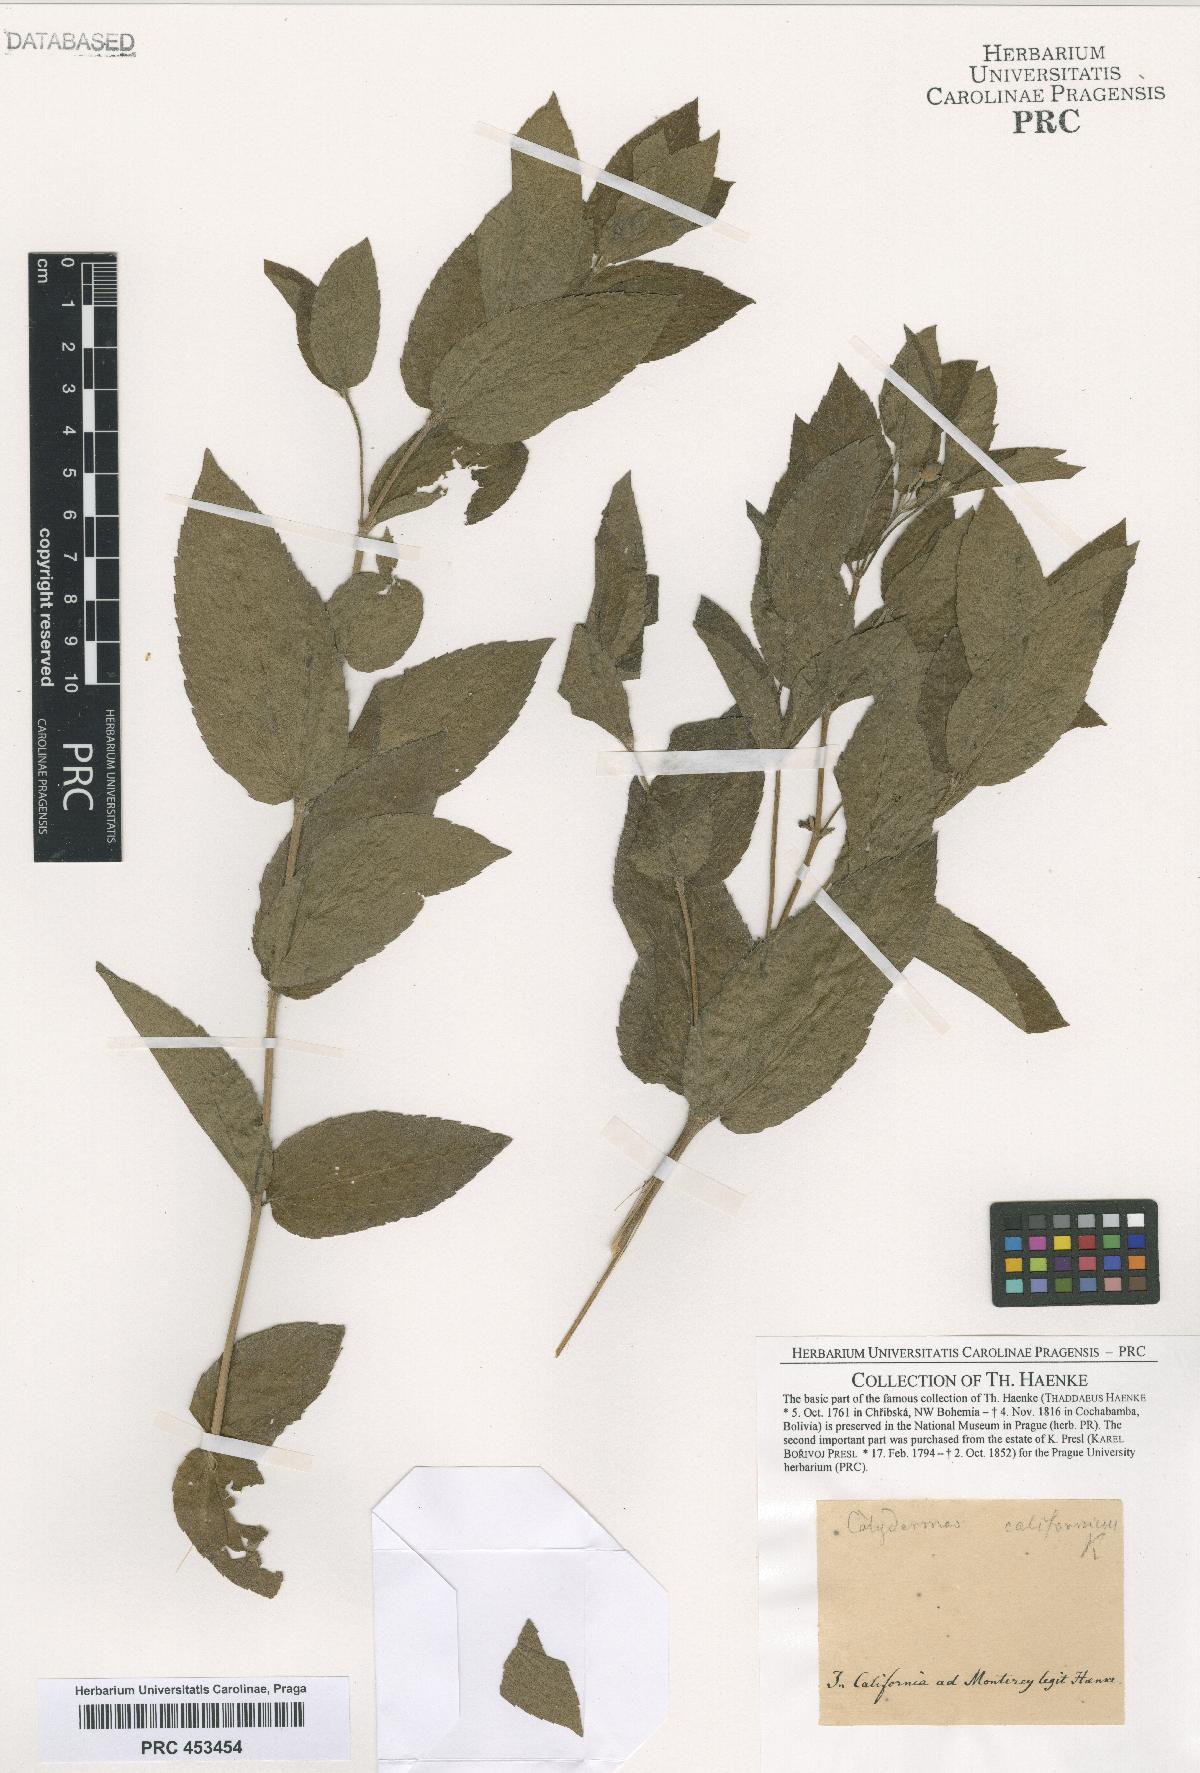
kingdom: Plantae
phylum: Tracheophyta
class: Magnoliopsida
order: Solanales
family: Solanaceae
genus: Nicandra
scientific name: Nicandra
